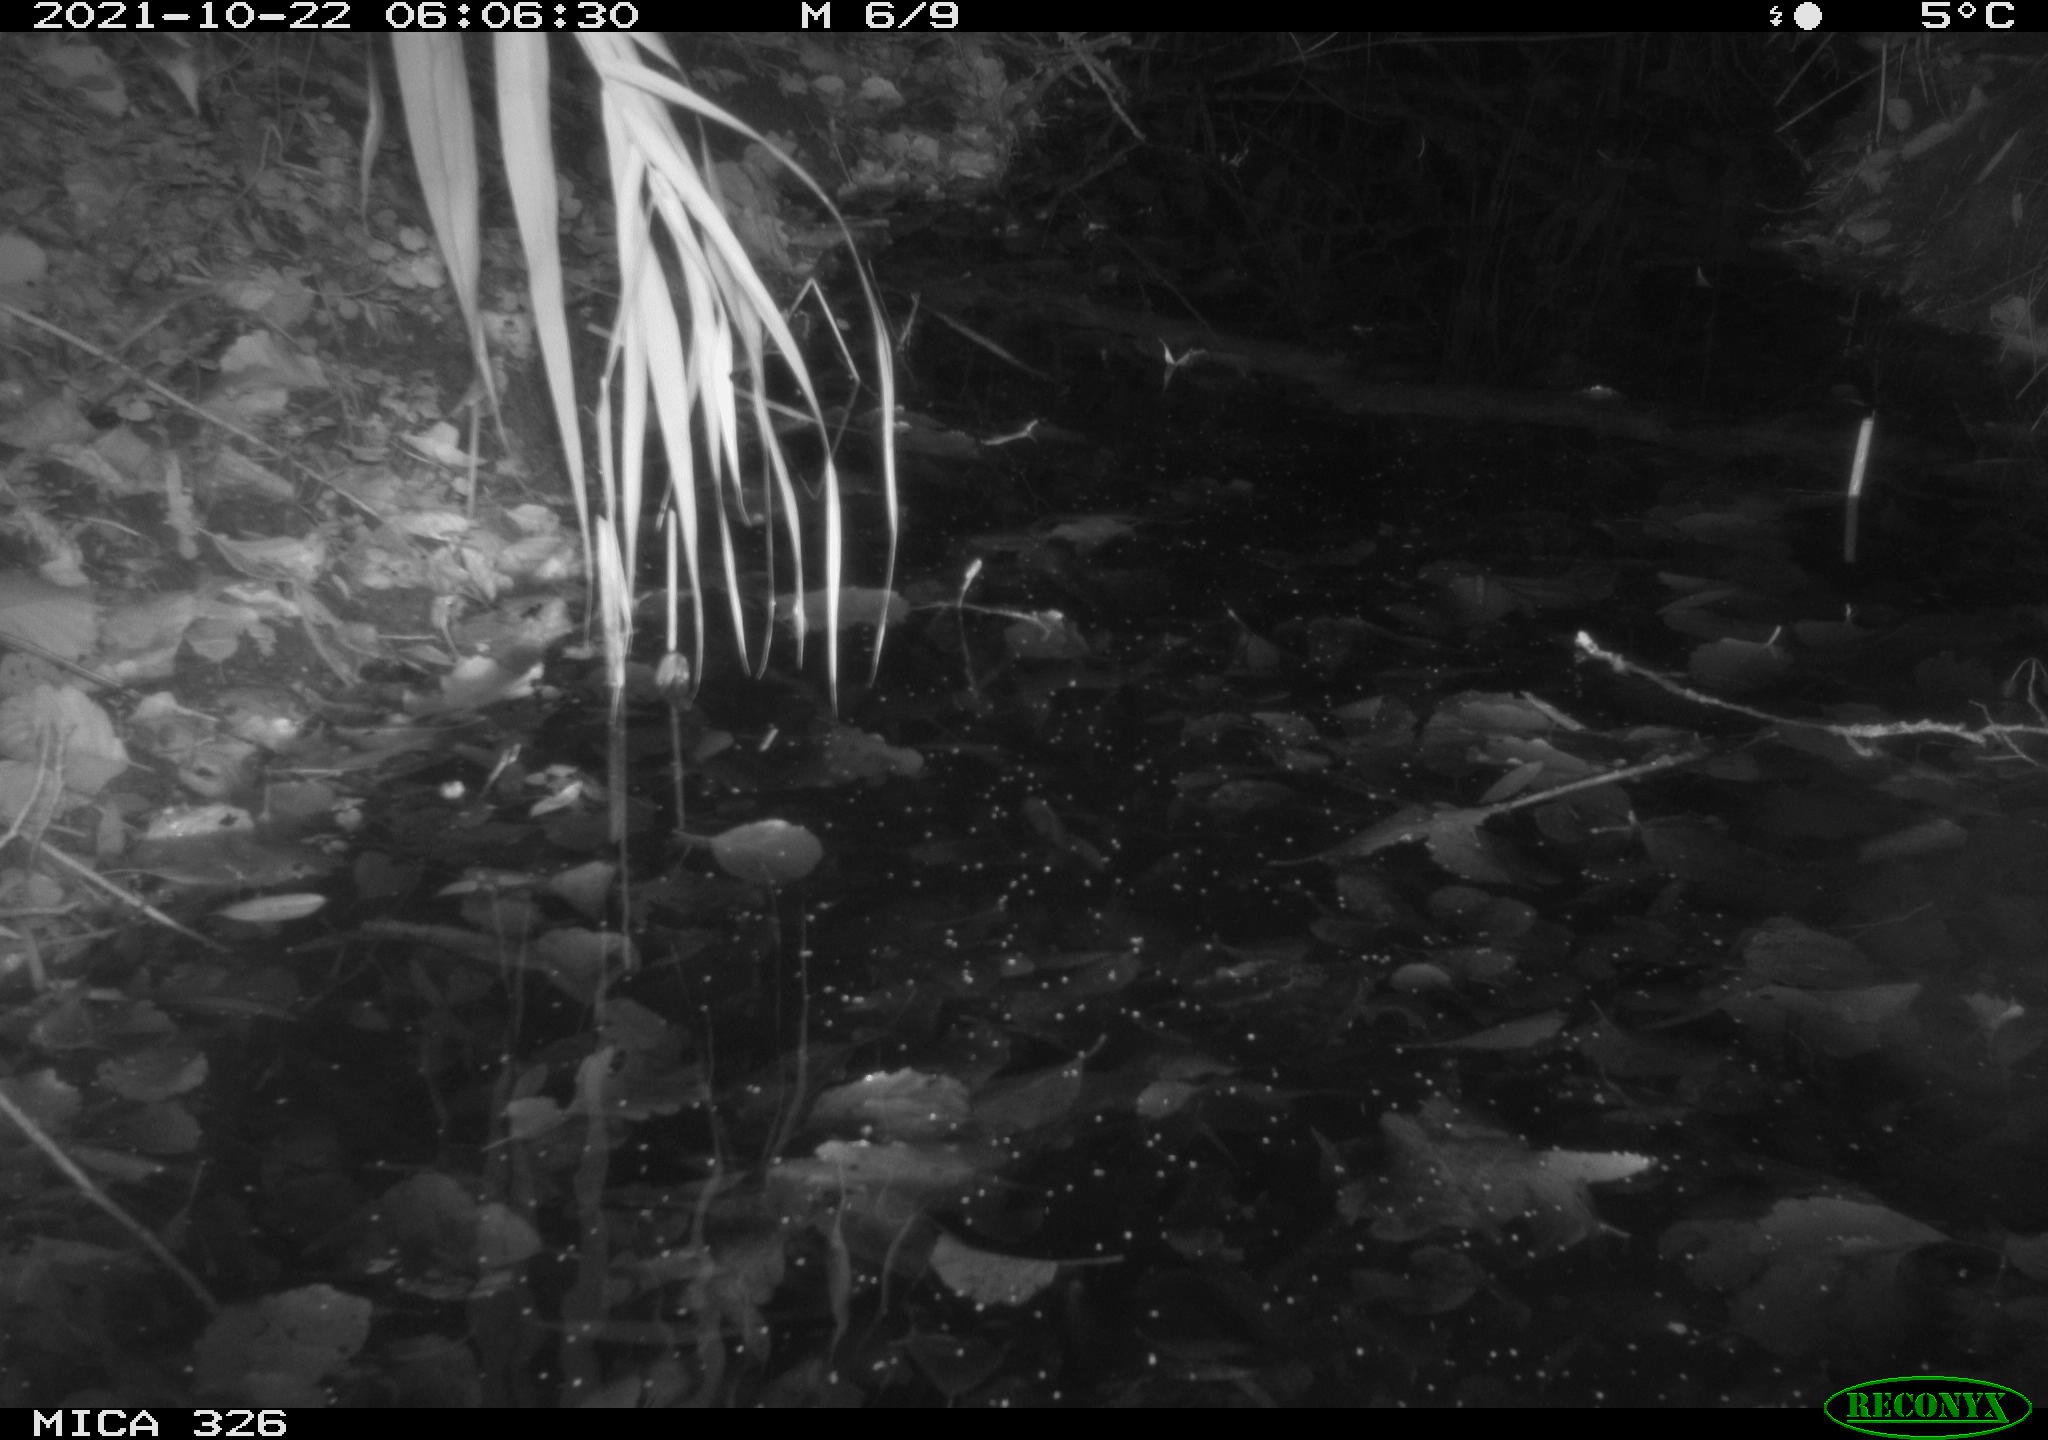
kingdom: Animalia
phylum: Chordata
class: Mammalia
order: Rodentia
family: Muridae
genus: Rattus
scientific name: Rattus norvegicus
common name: Brown rat
